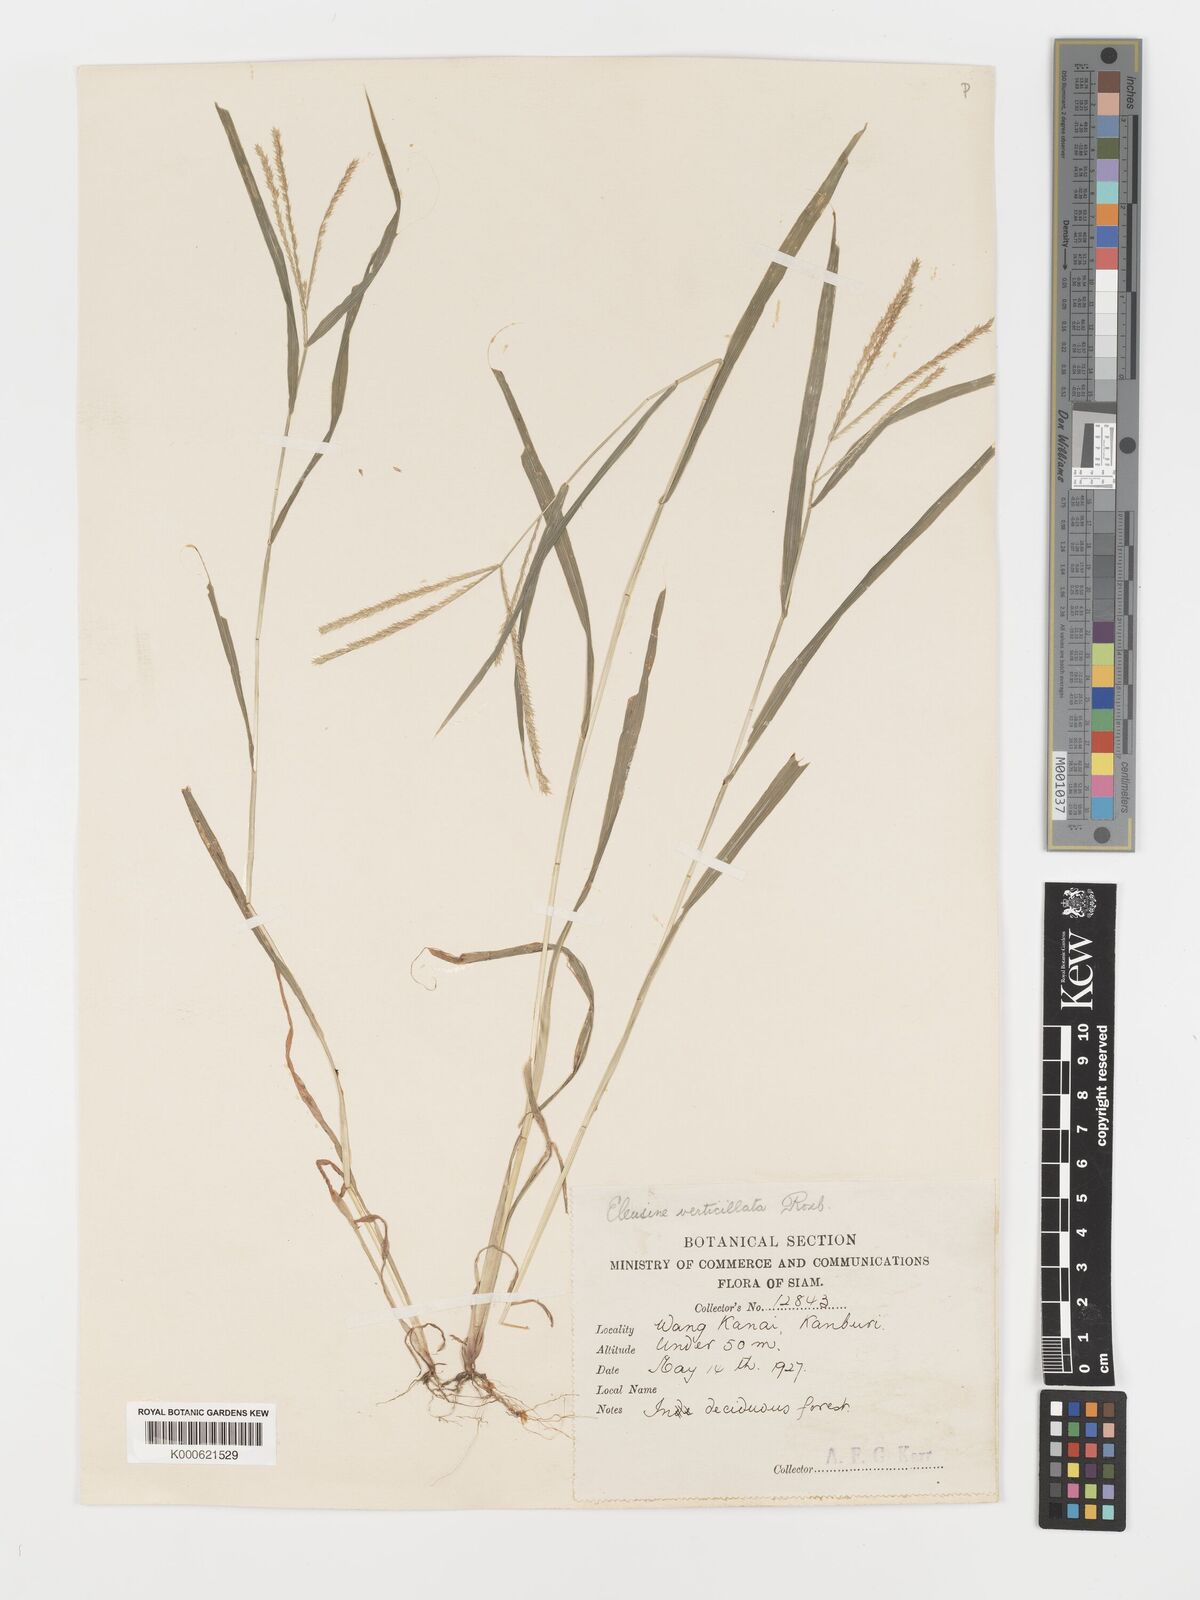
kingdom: Plantae
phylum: Tracheophyta
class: Liliopsida
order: Poales
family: Poaceae
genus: Acrachne
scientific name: Acrachne racemosa
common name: Goosegrass
